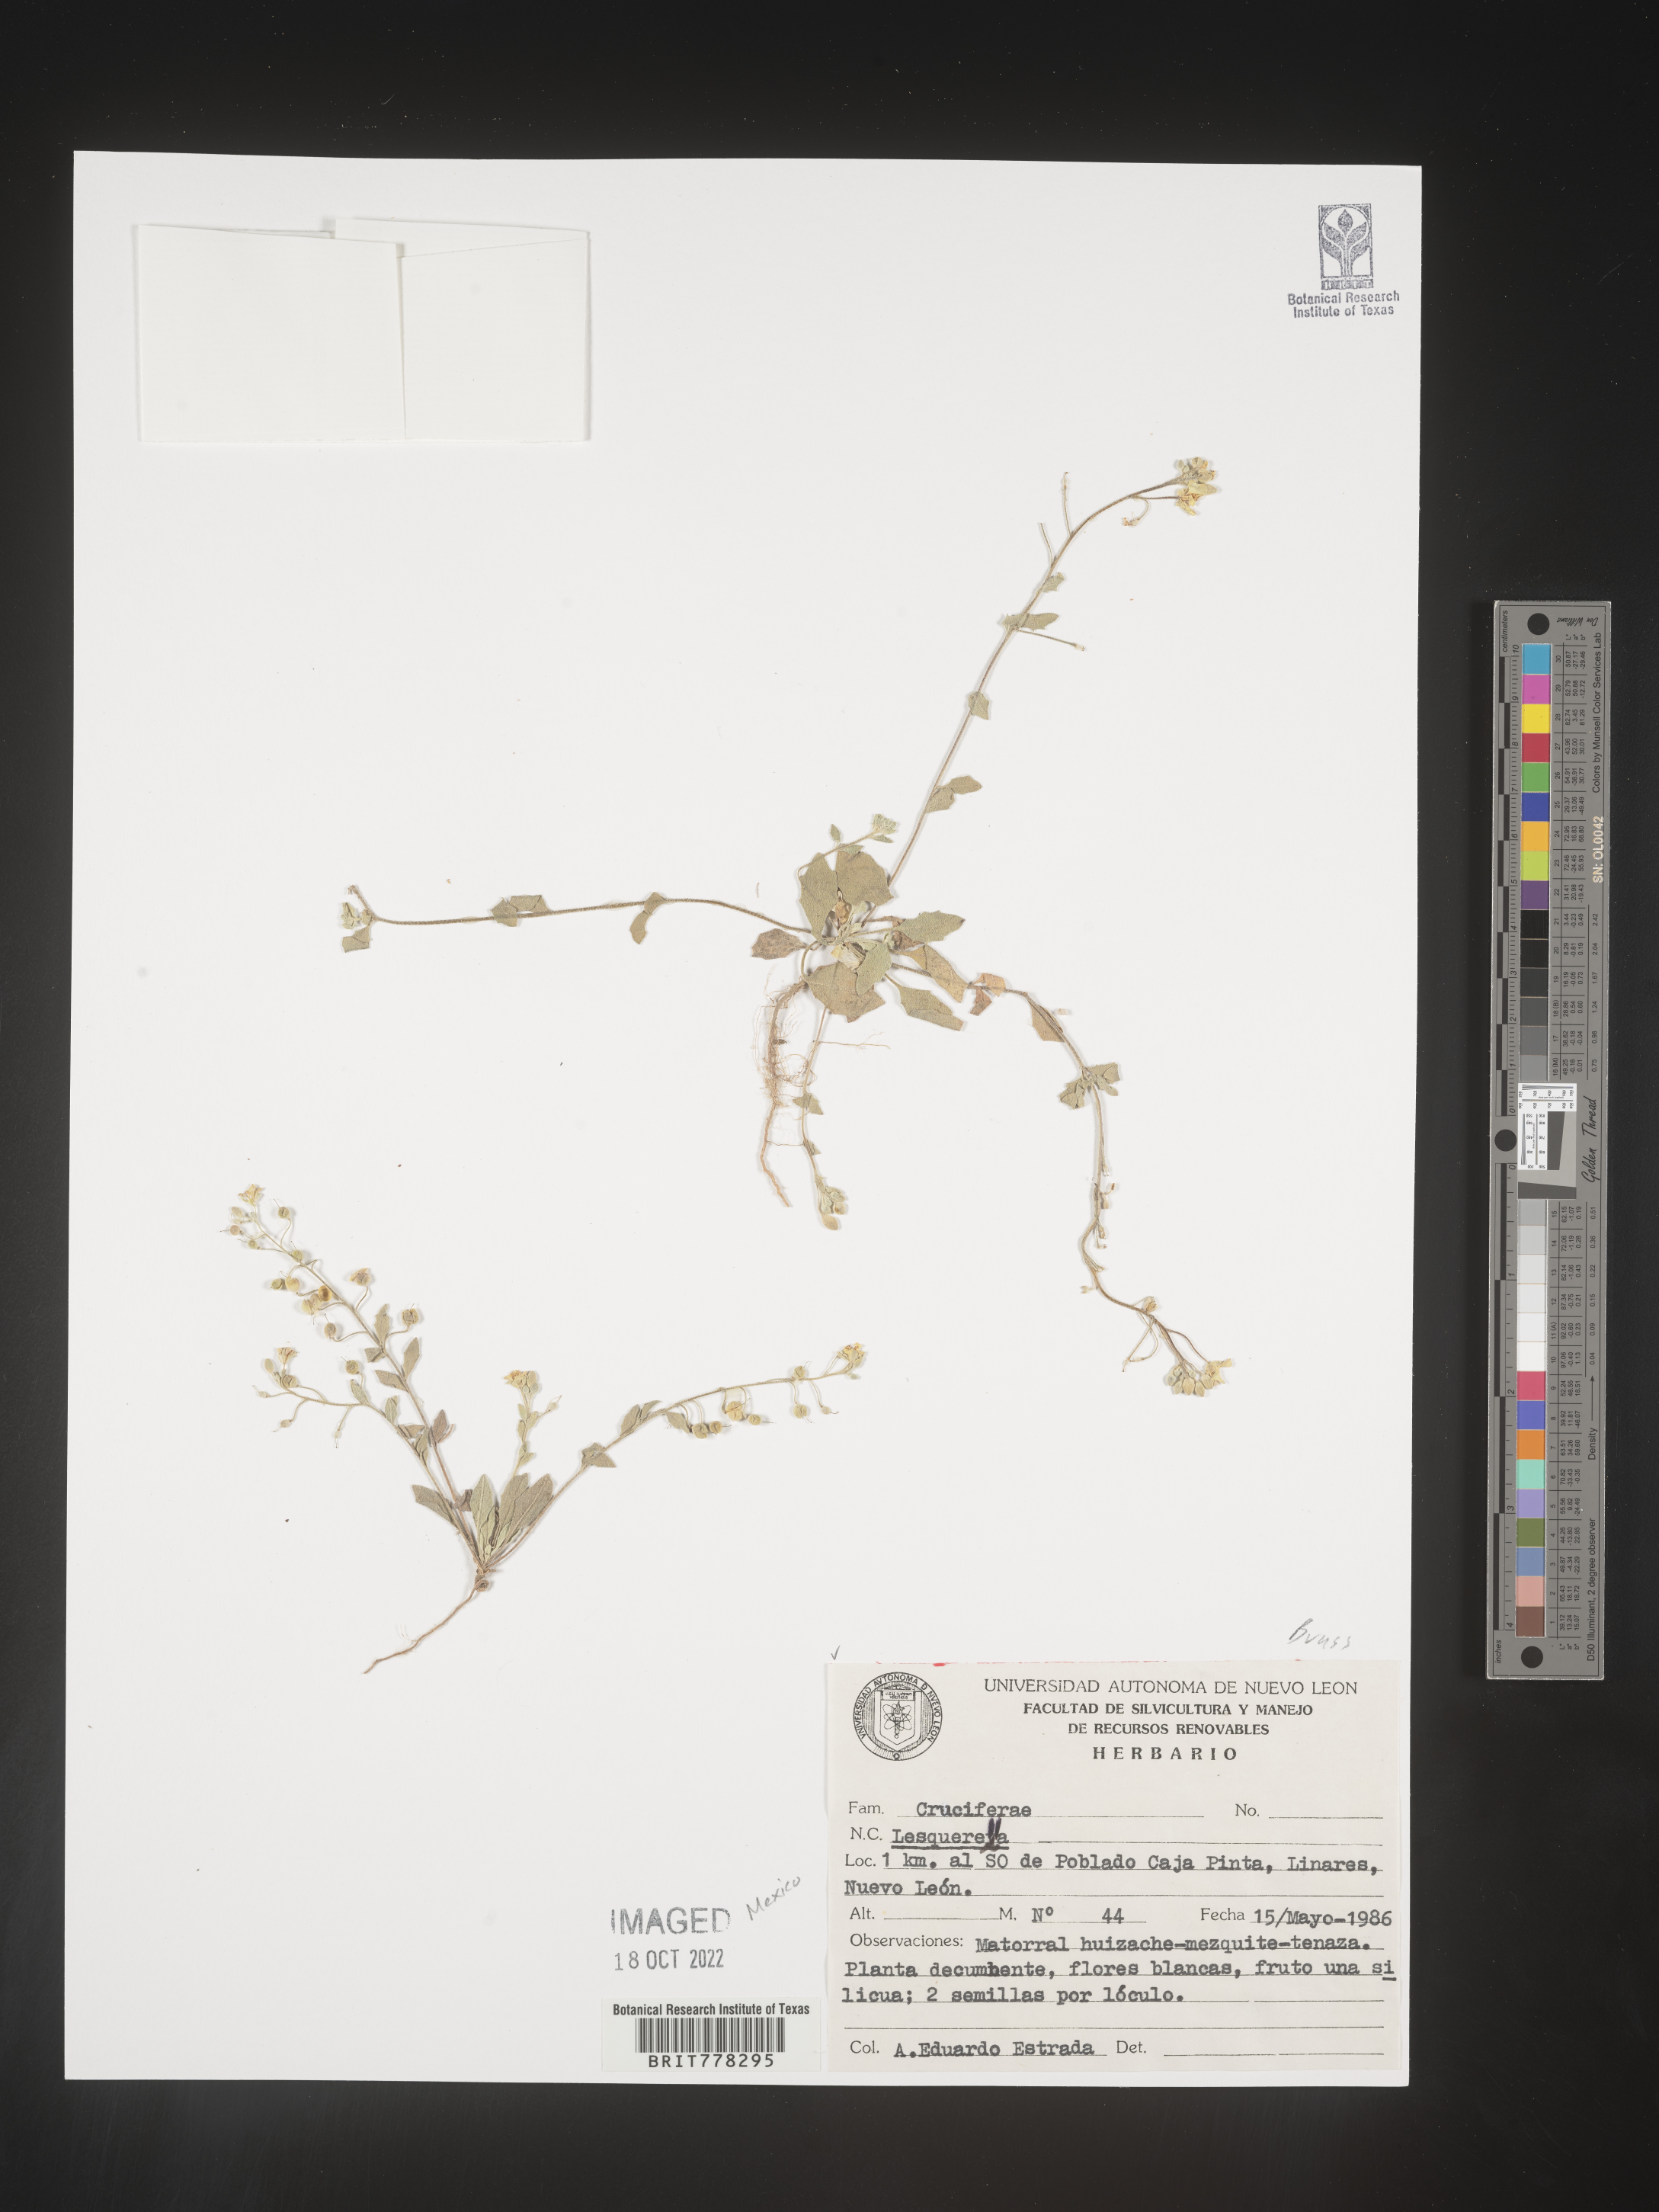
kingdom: Chromista
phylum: Cercozoa
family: Psammonobiotidae
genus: Lesquerella
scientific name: Lesquerella
